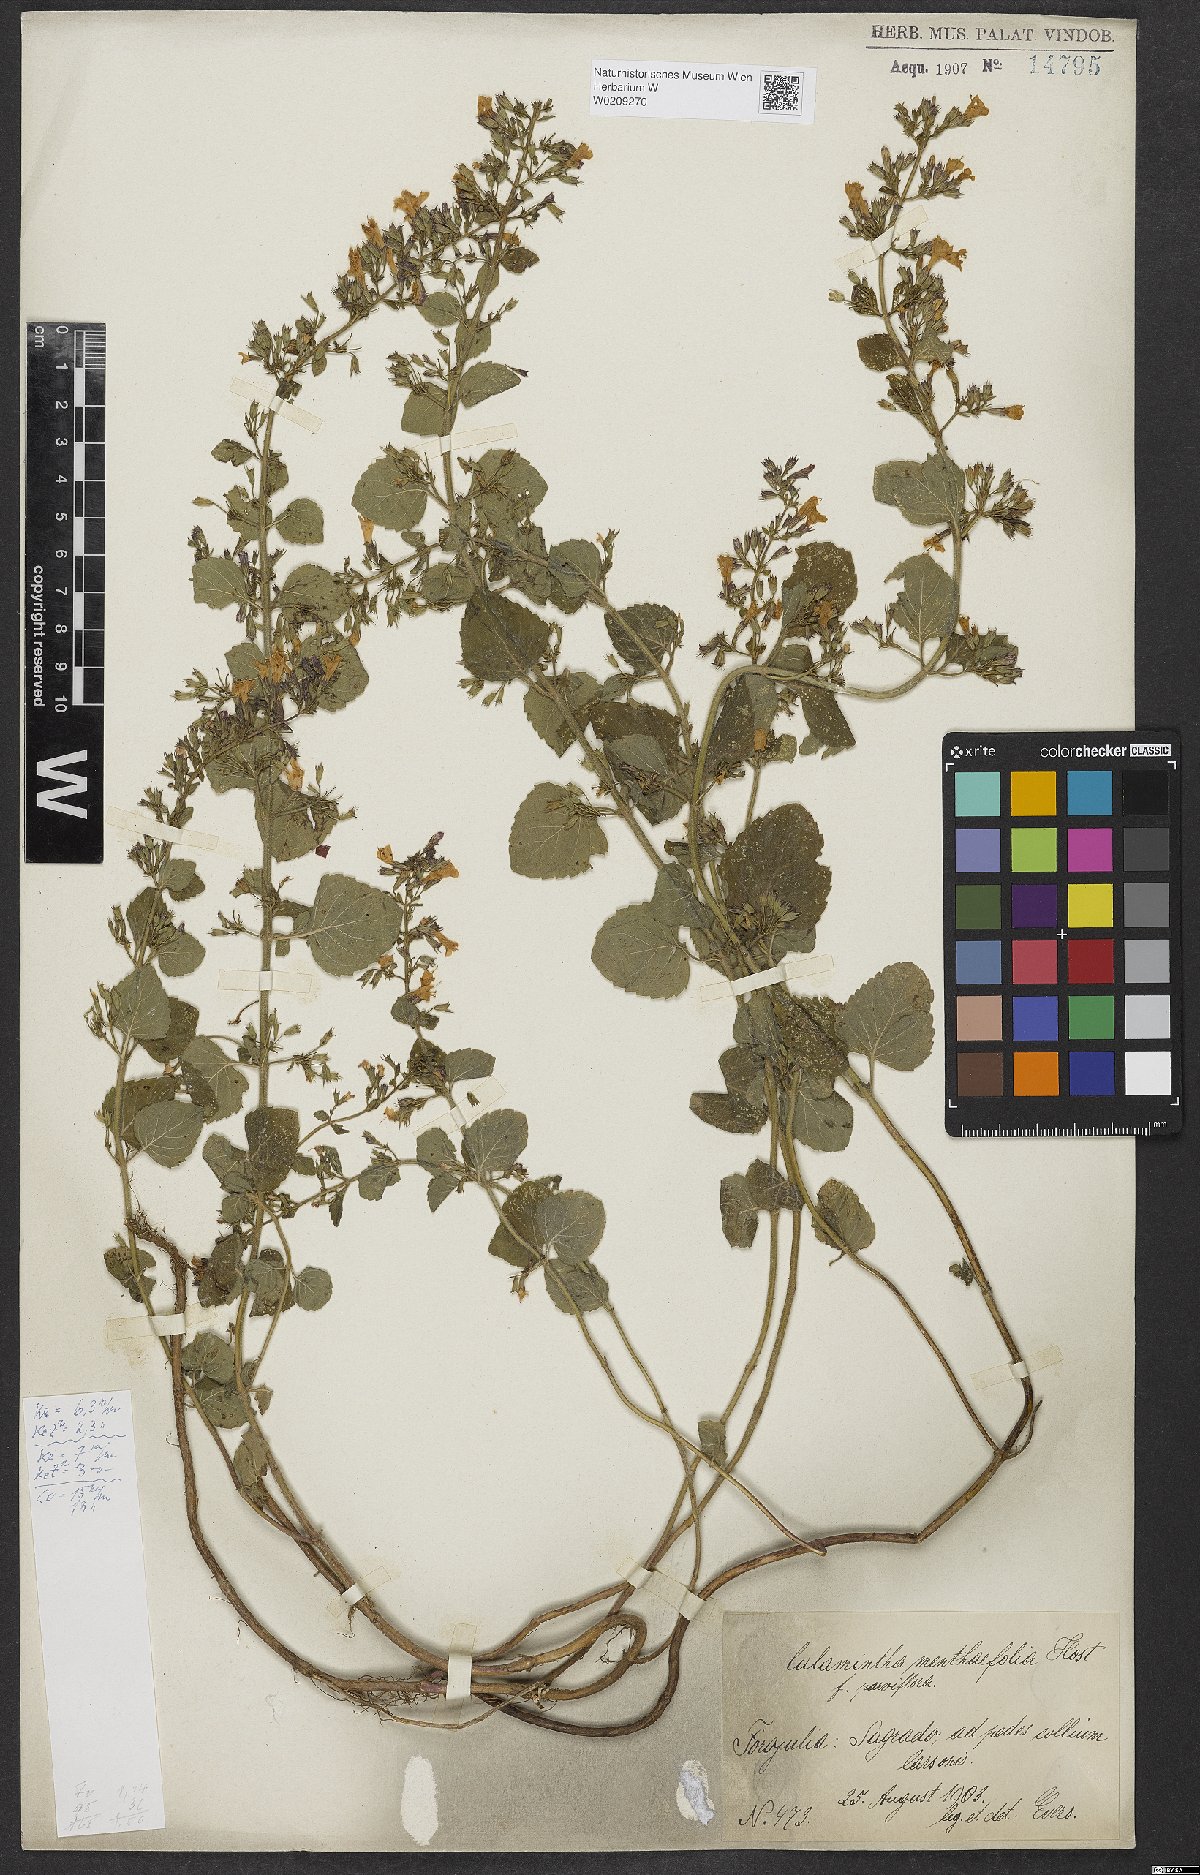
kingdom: Plantae
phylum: Tracheophyta
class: Magnoliopsida
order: Lamiales
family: Lamiaceae
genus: Clinopodium
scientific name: Clinopodium menthifolium
